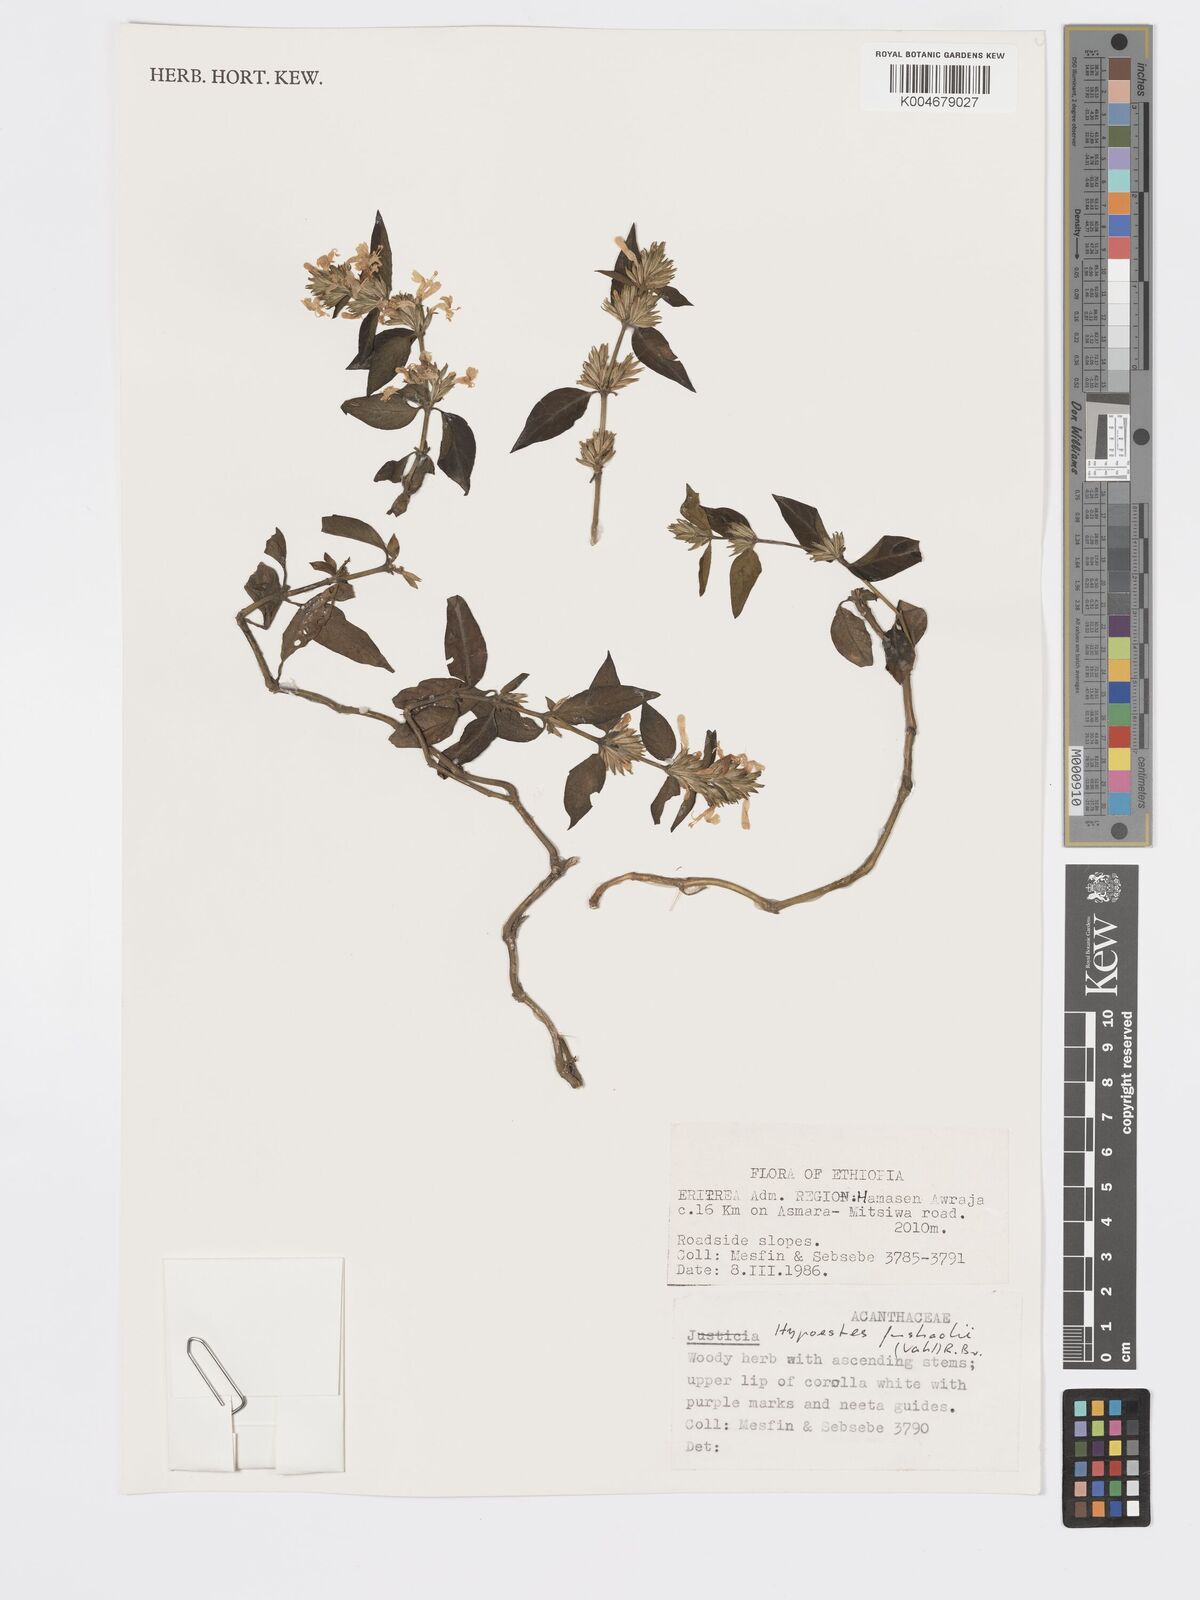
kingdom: Plantae
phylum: Tracheophyta
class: Magnoliopsida
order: Lamiales
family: Acanthaceae
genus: Hypoestes
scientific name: Hypoestes forskaolii
